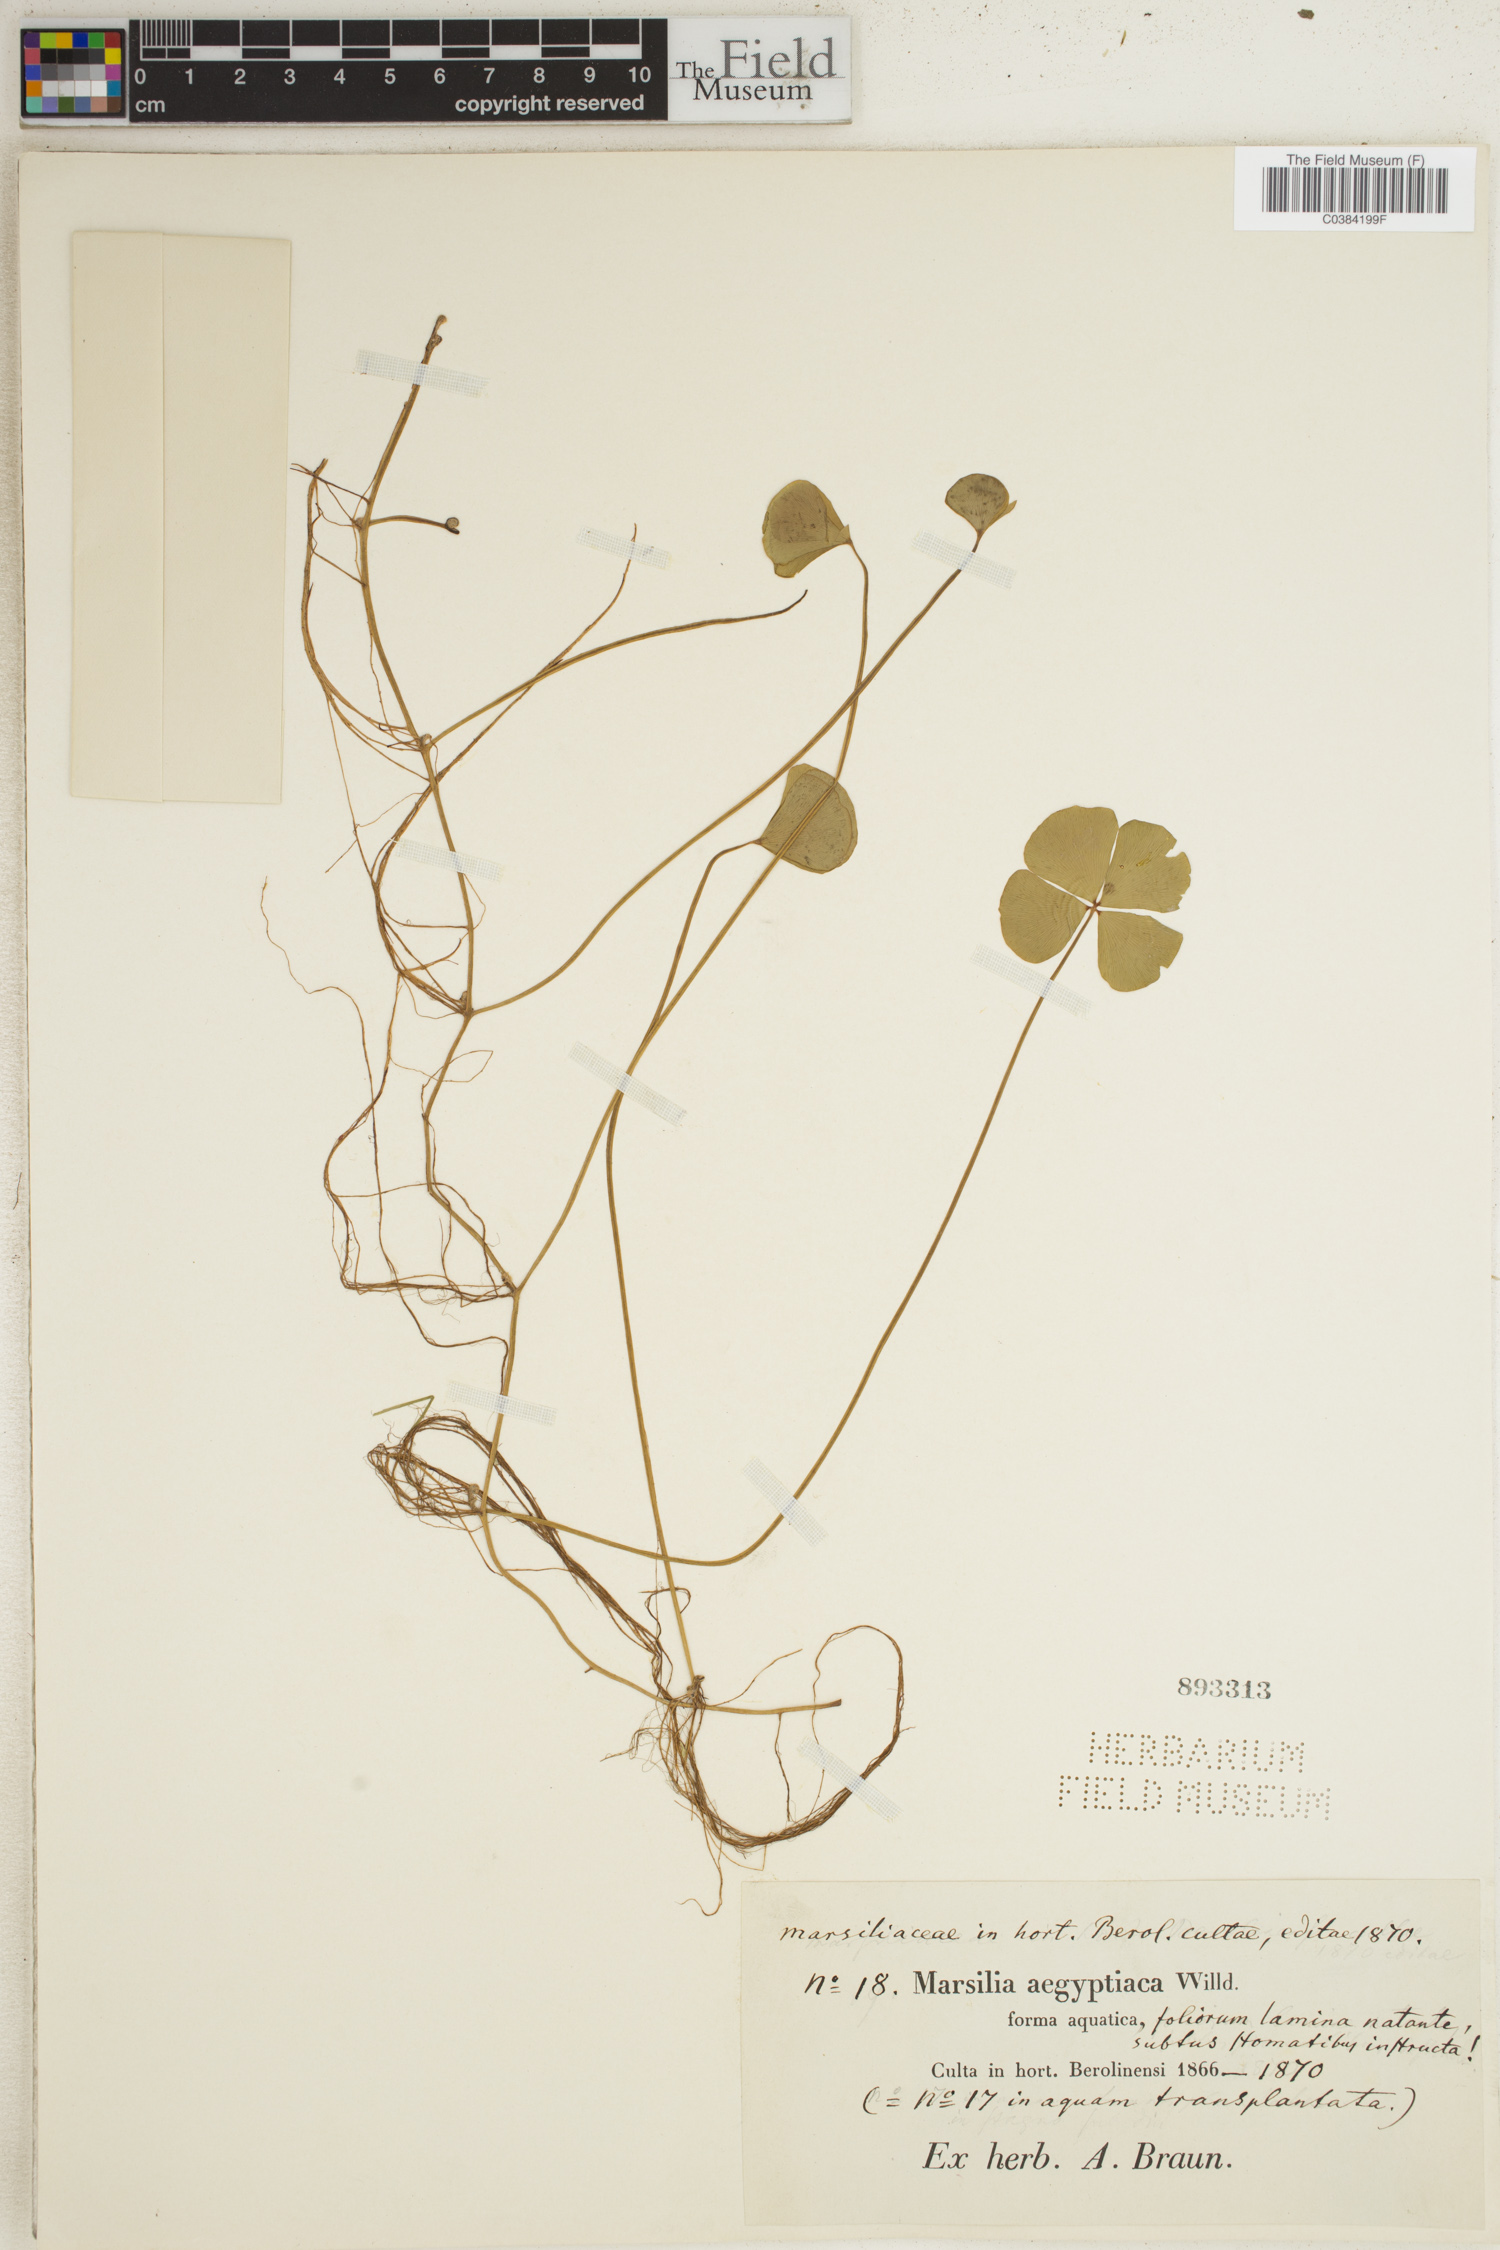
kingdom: Plantae
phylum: Tracheophyta
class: Polypodiopsida
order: Salviniales
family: Marsileaceae
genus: Marsilea
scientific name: Marsilea aegyptica
